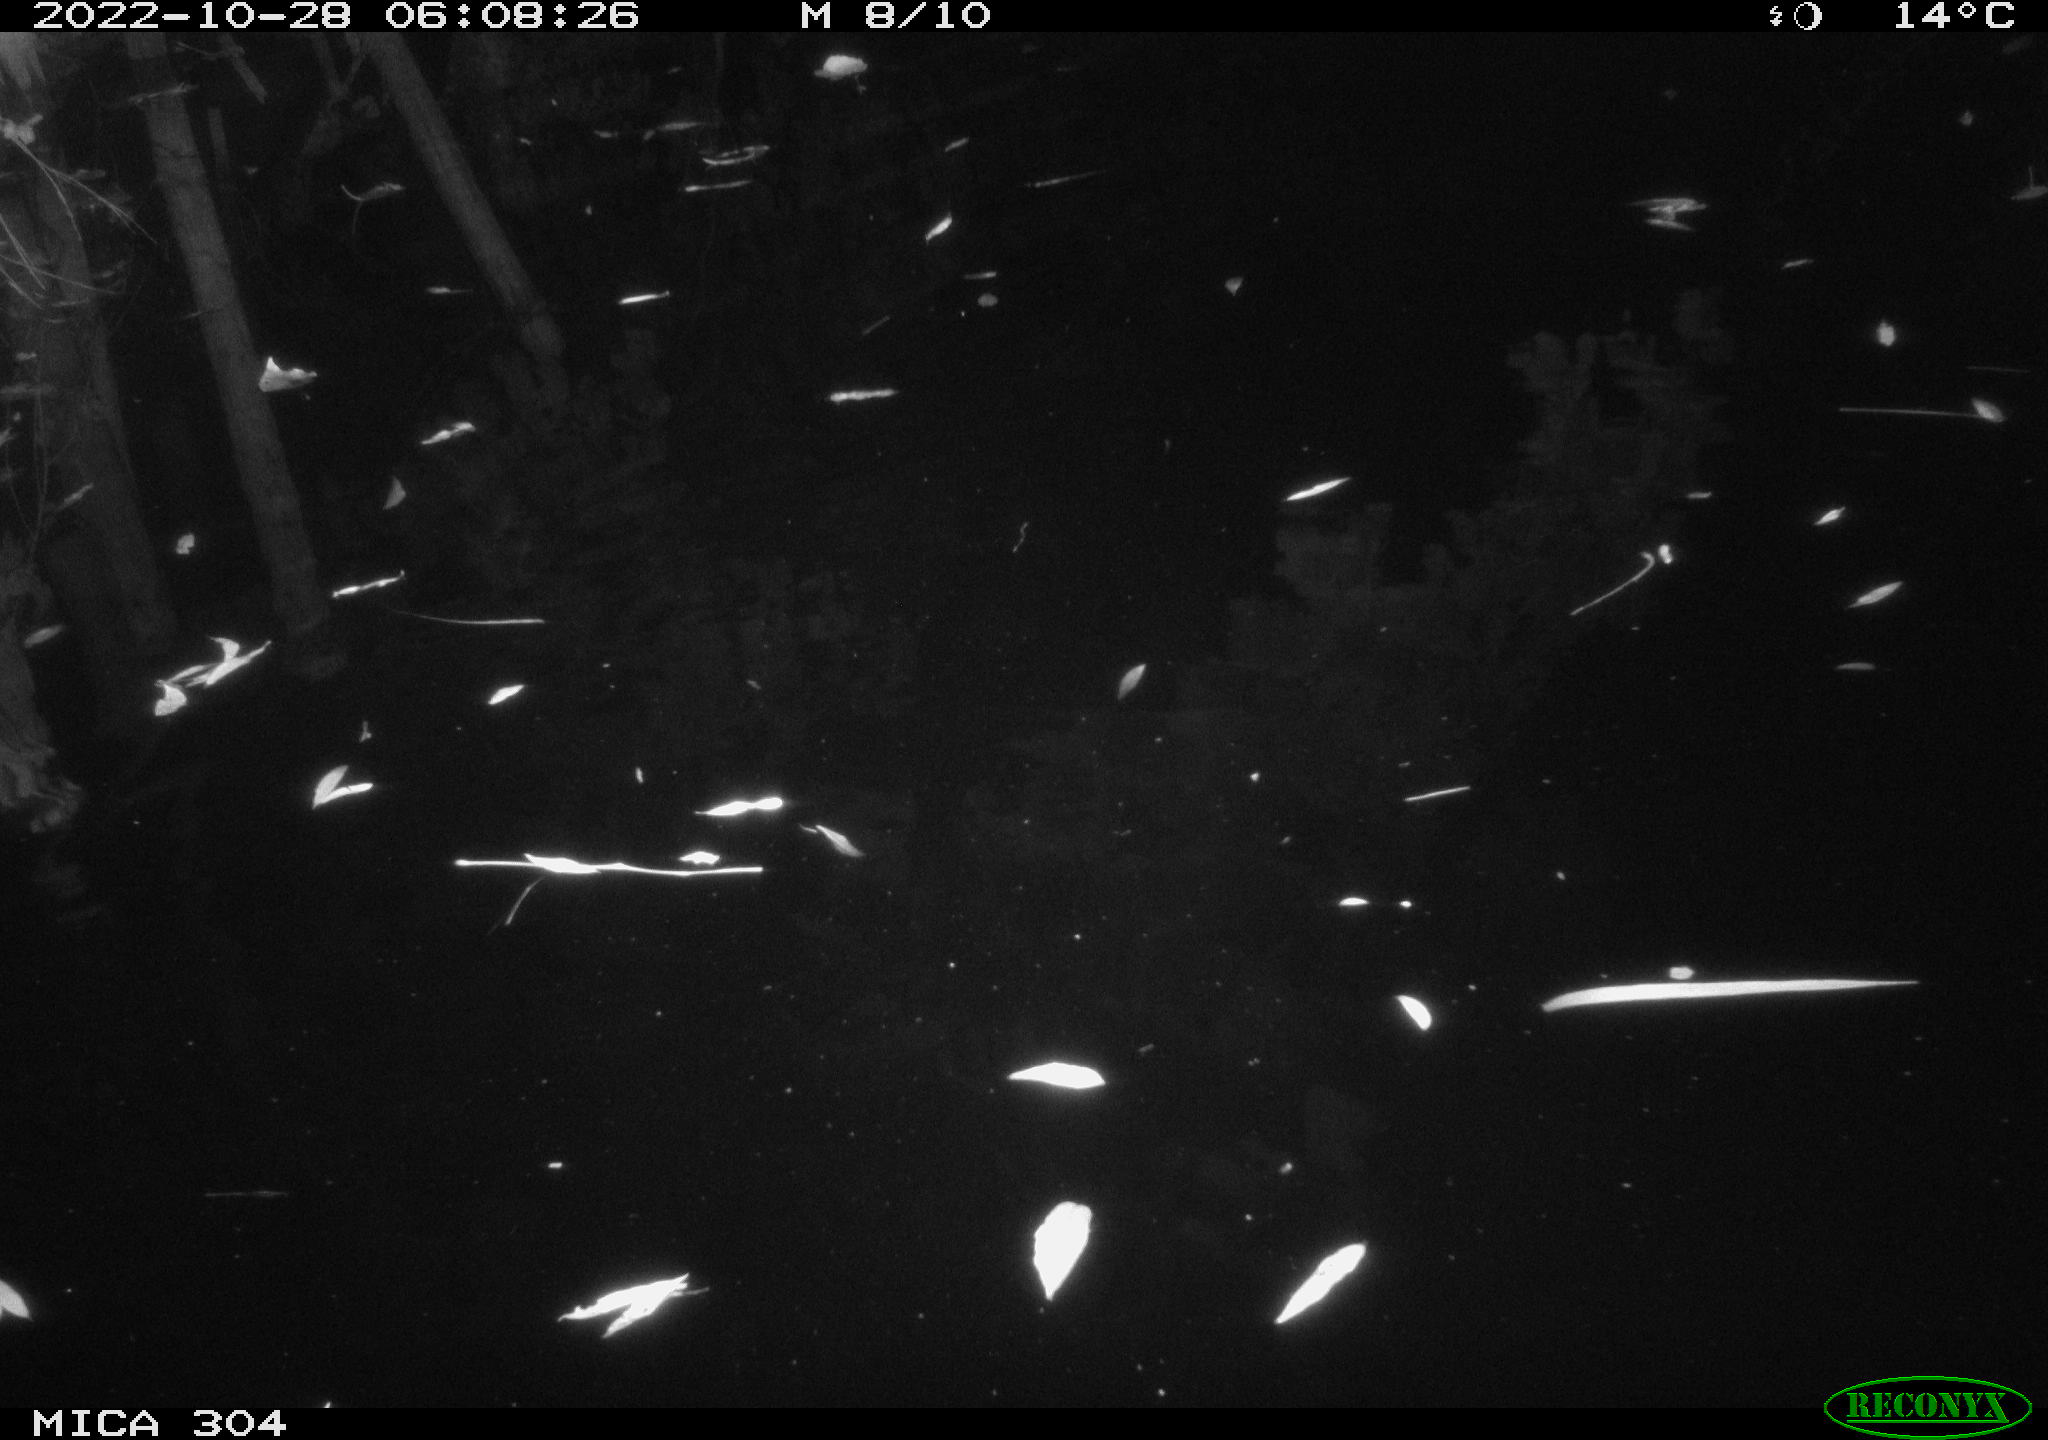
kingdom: Animalia
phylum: Chordata
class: Mammalia
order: Rodentia
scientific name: Rodentia
